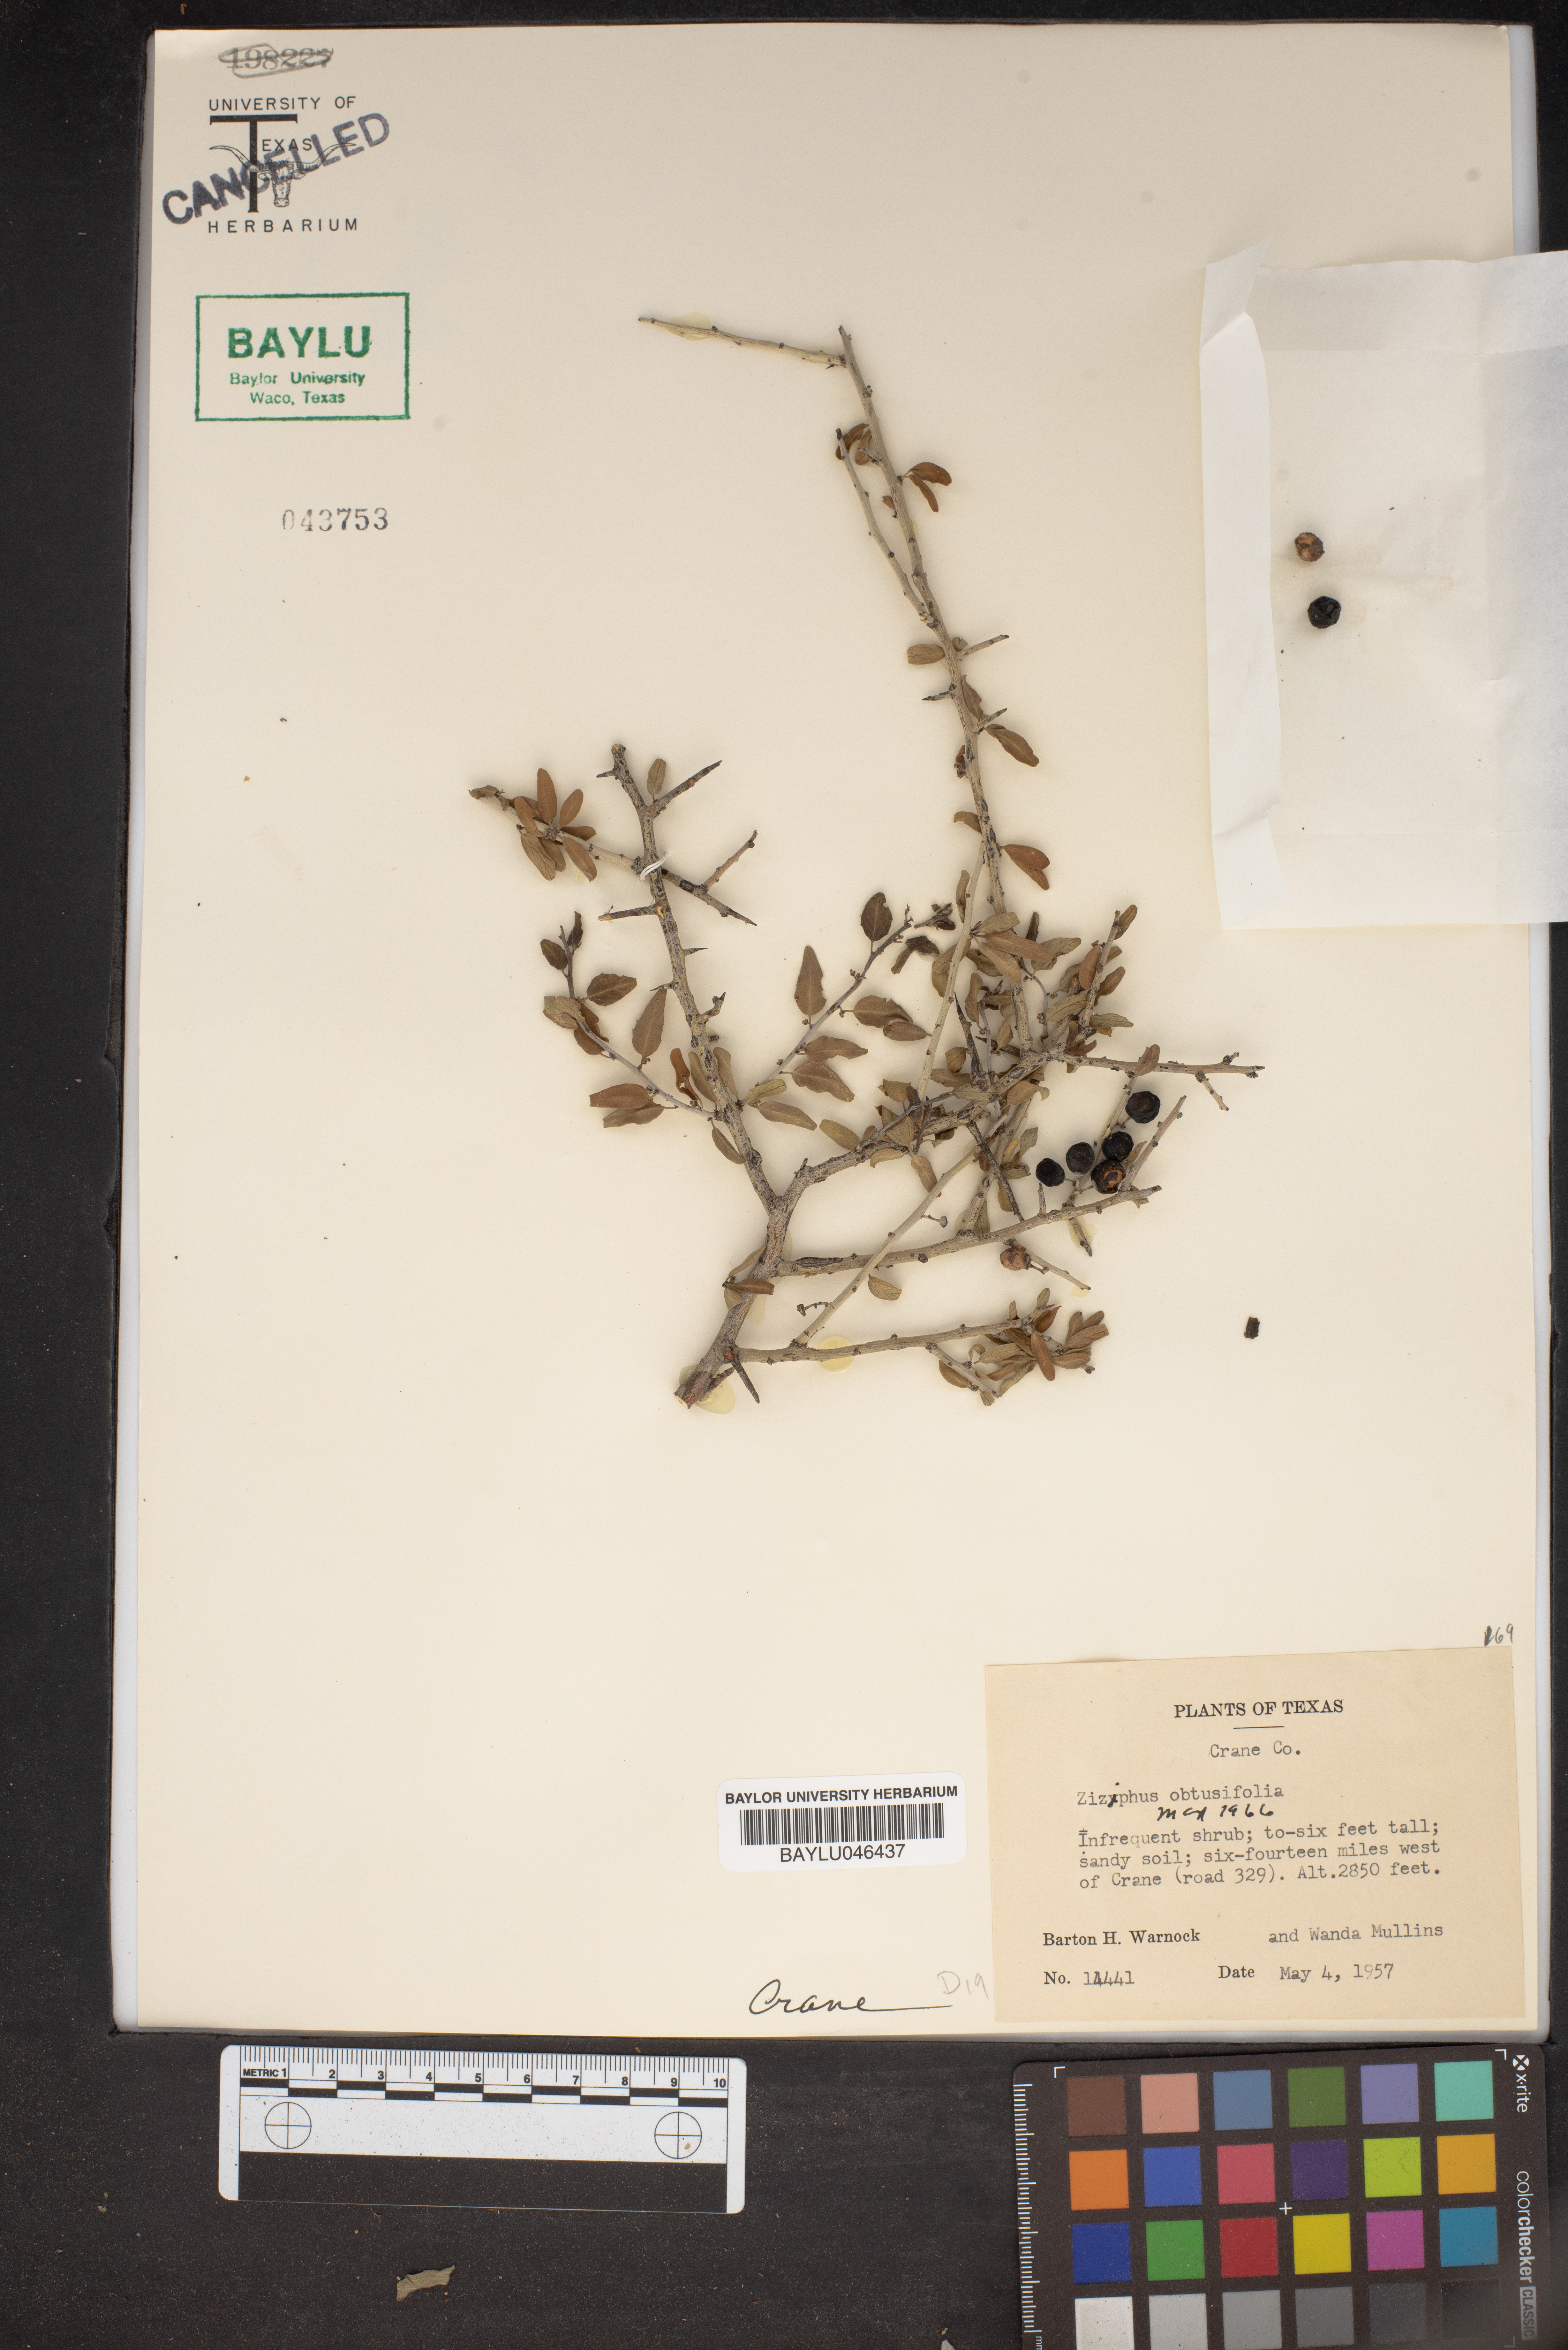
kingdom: Plantae
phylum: Tracheophyta
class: Magnoliopsida
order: Rosales
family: Rhamnaceae
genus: Sarcomphalus
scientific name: Sarcomphalus obtusifolius
